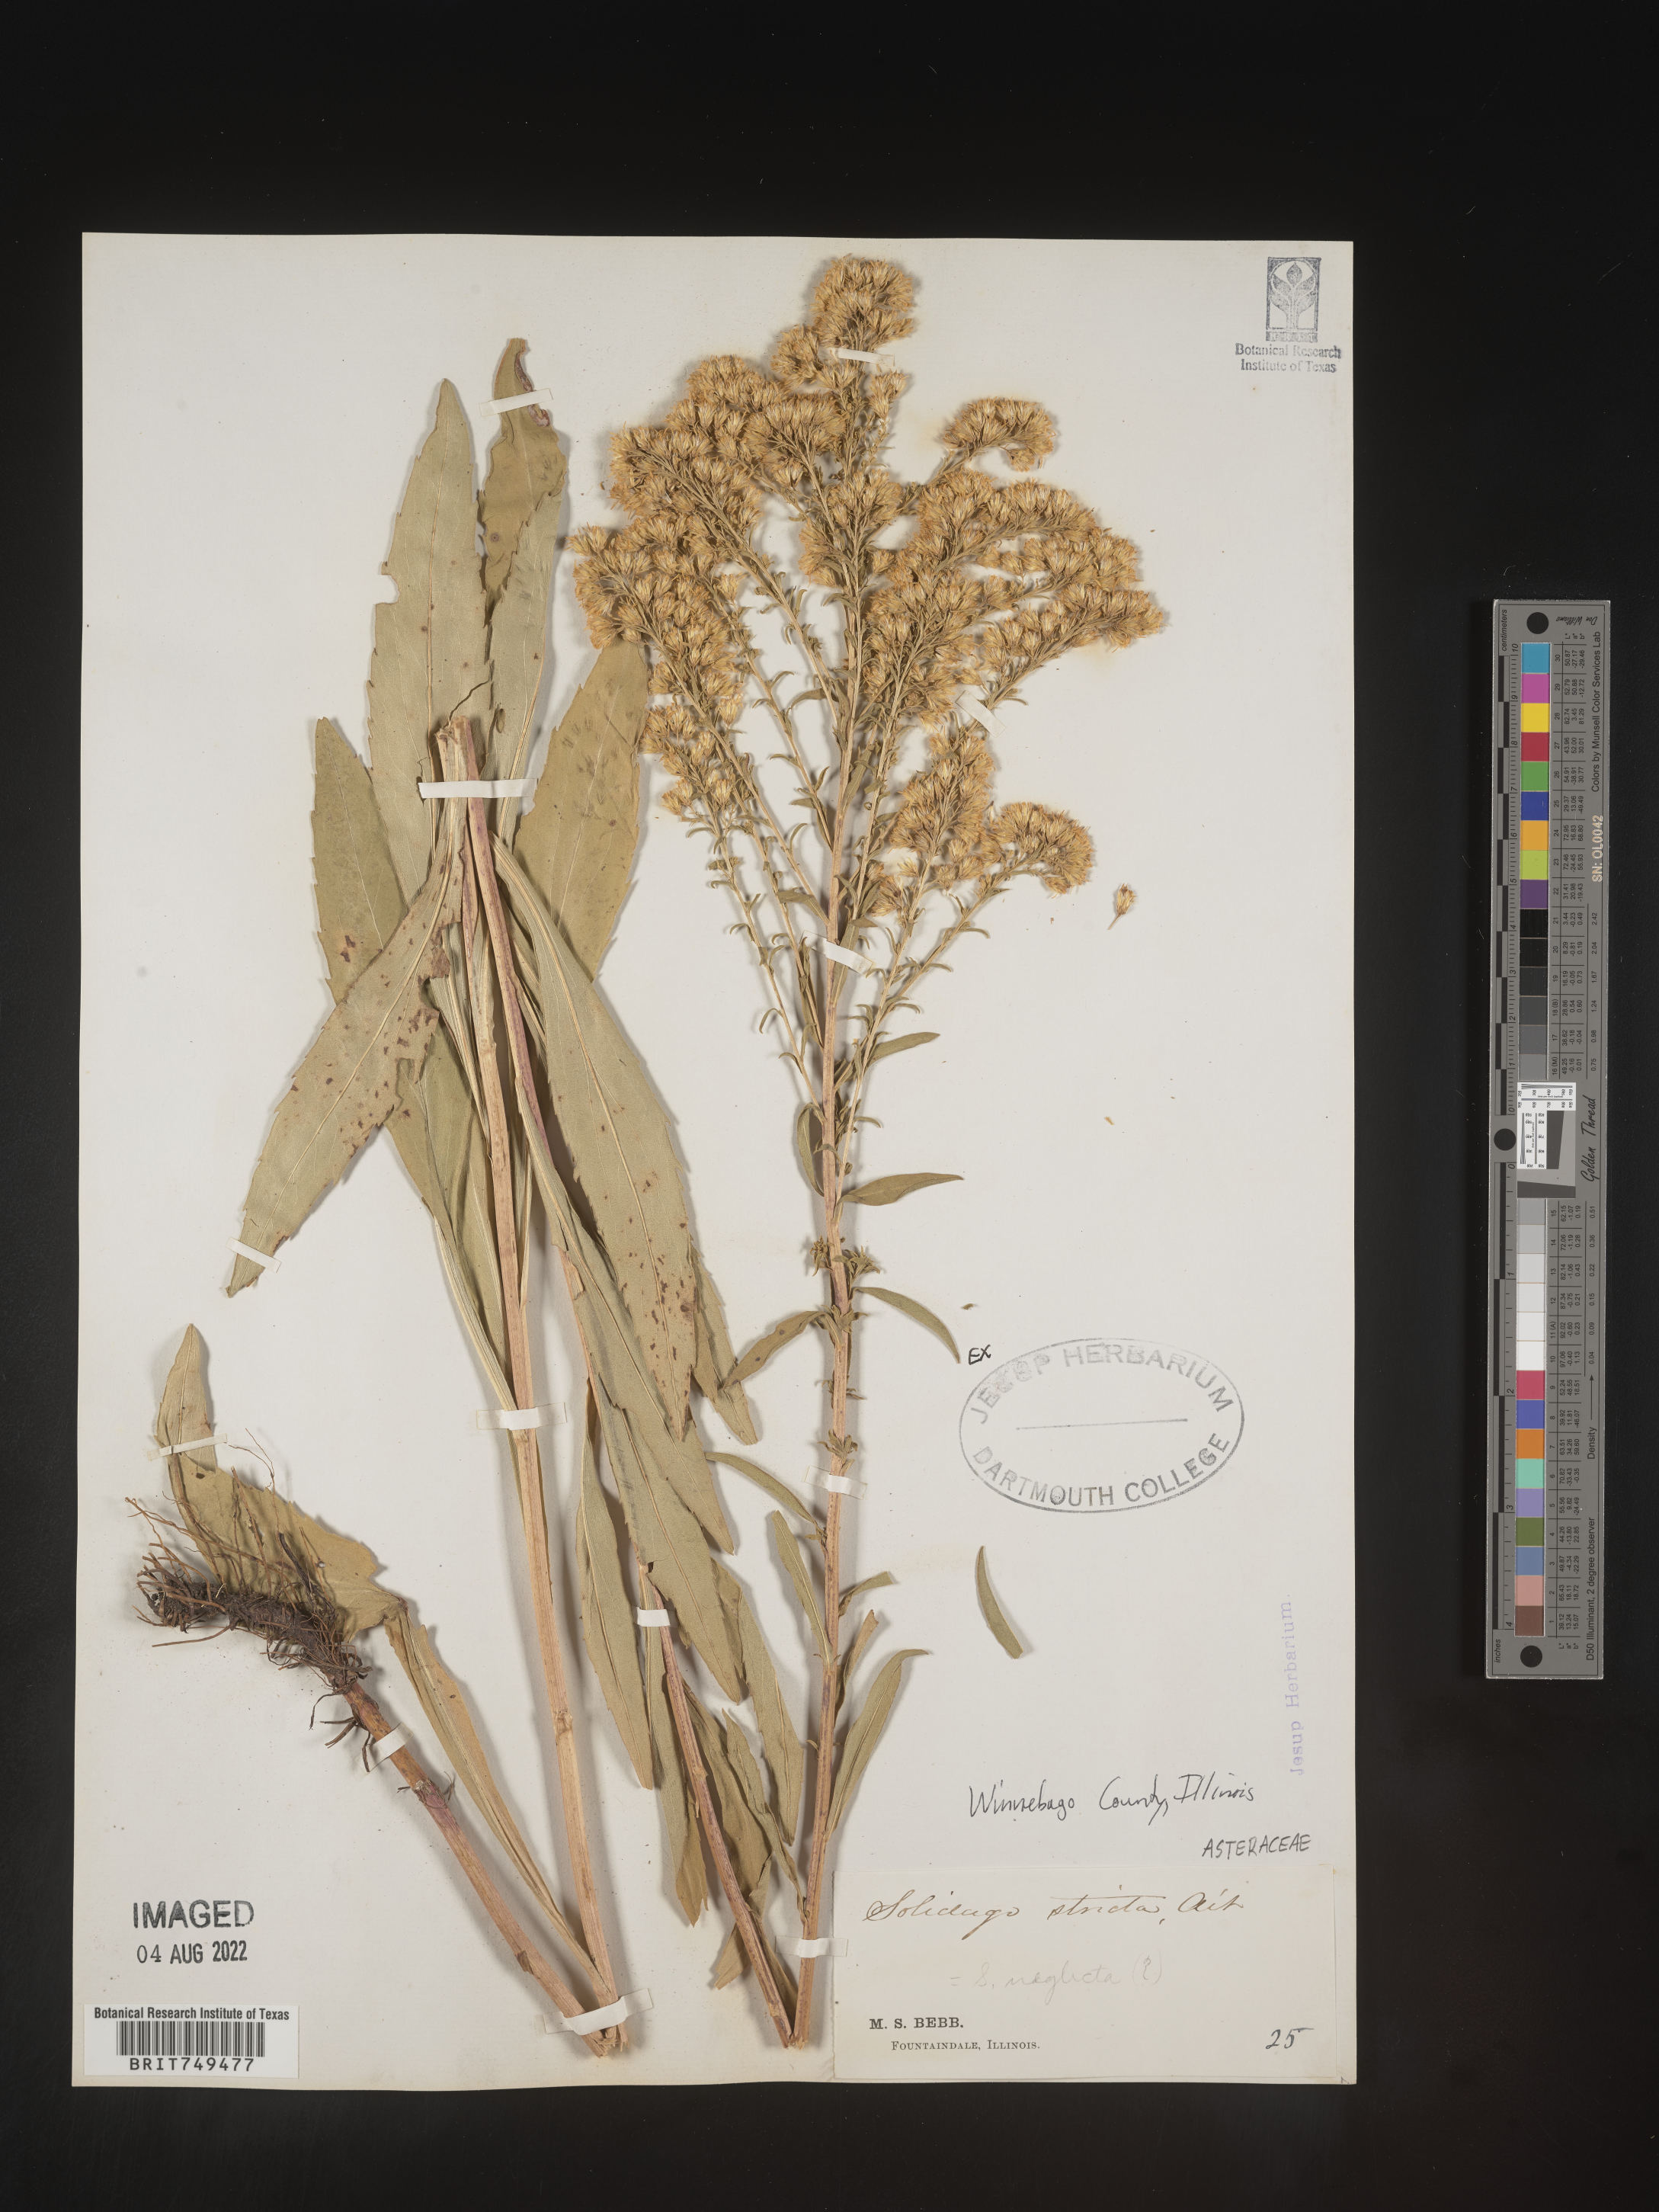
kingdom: Plantae
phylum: Tracheophyta
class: Magnoliopsida
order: Asterales
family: Asteraceae
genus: Solidago
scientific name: Solidago stricta
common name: Pine barren bog goldenrod
